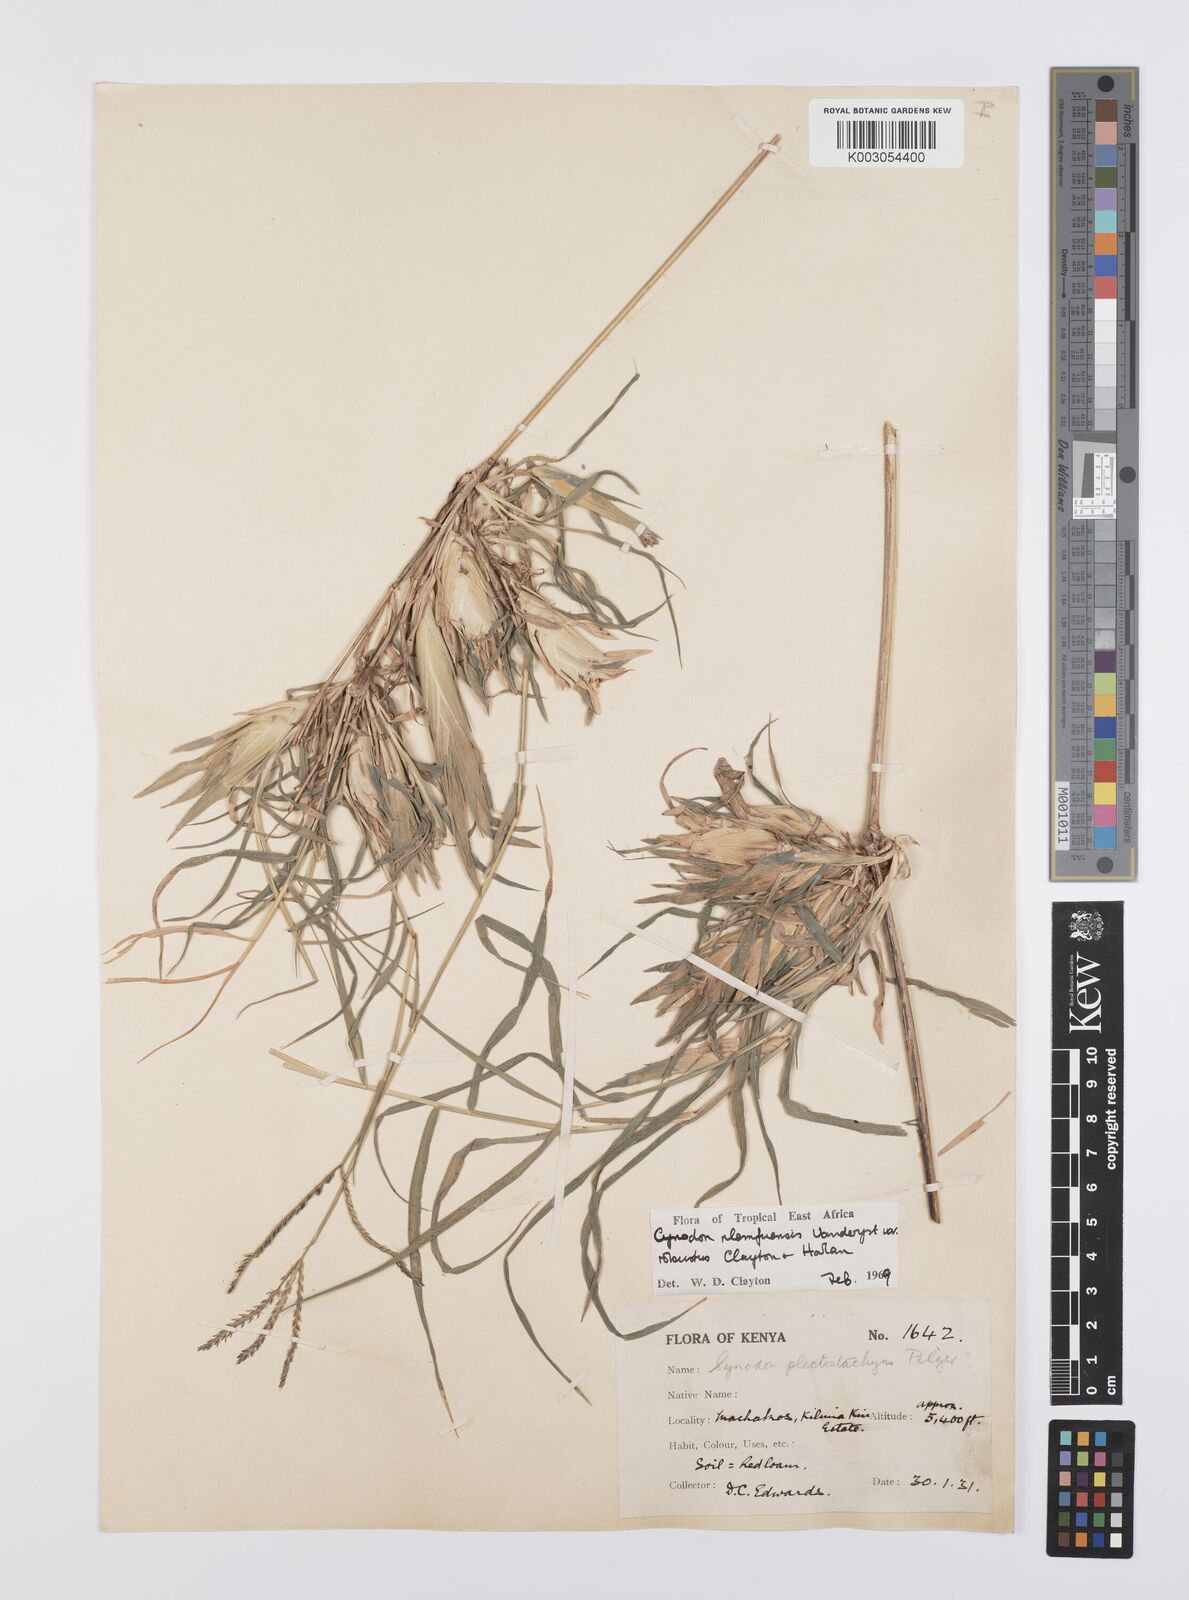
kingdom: Plantae
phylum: Tracheophyta
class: Liliopsida
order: Poales
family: Poaceae
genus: Cynodon
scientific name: Cynodon nlemfuensis
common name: African bermudagrass
